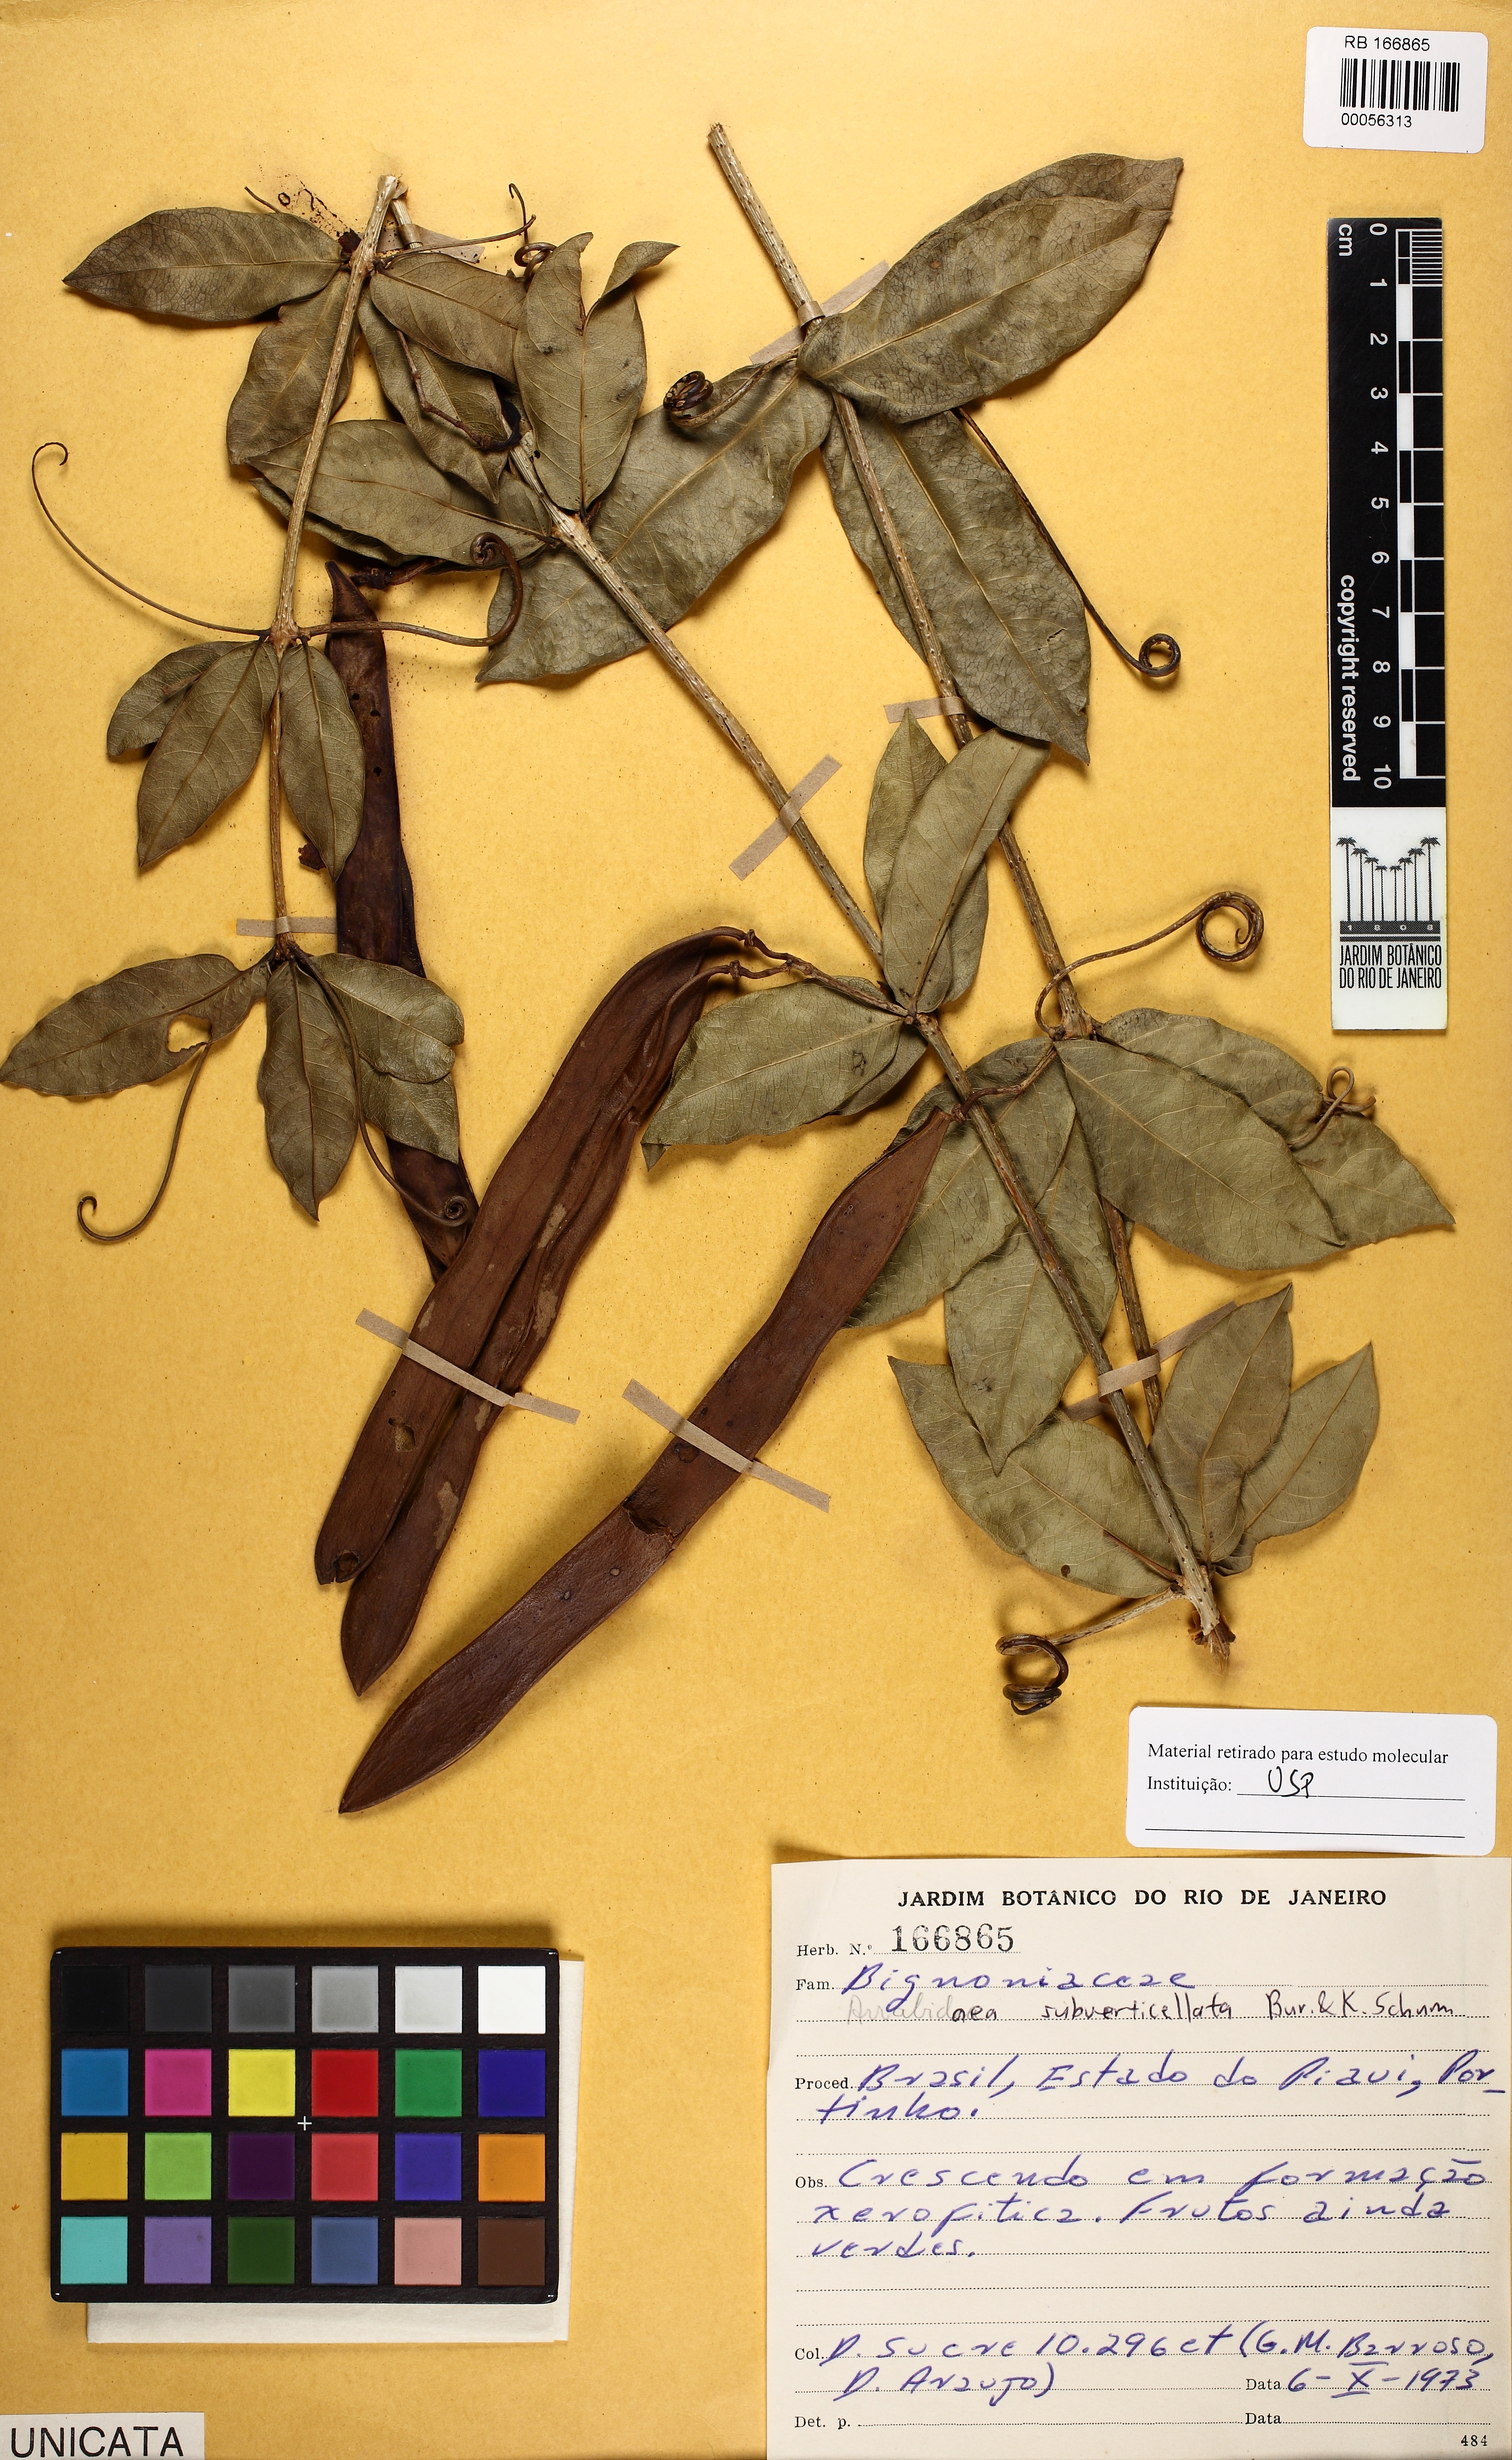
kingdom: Plantae
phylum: Tracheophyta
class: Magnoliopsida
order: Lamiales
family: Bignoniaceae
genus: Fridericia
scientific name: Fridericia subverticillata
